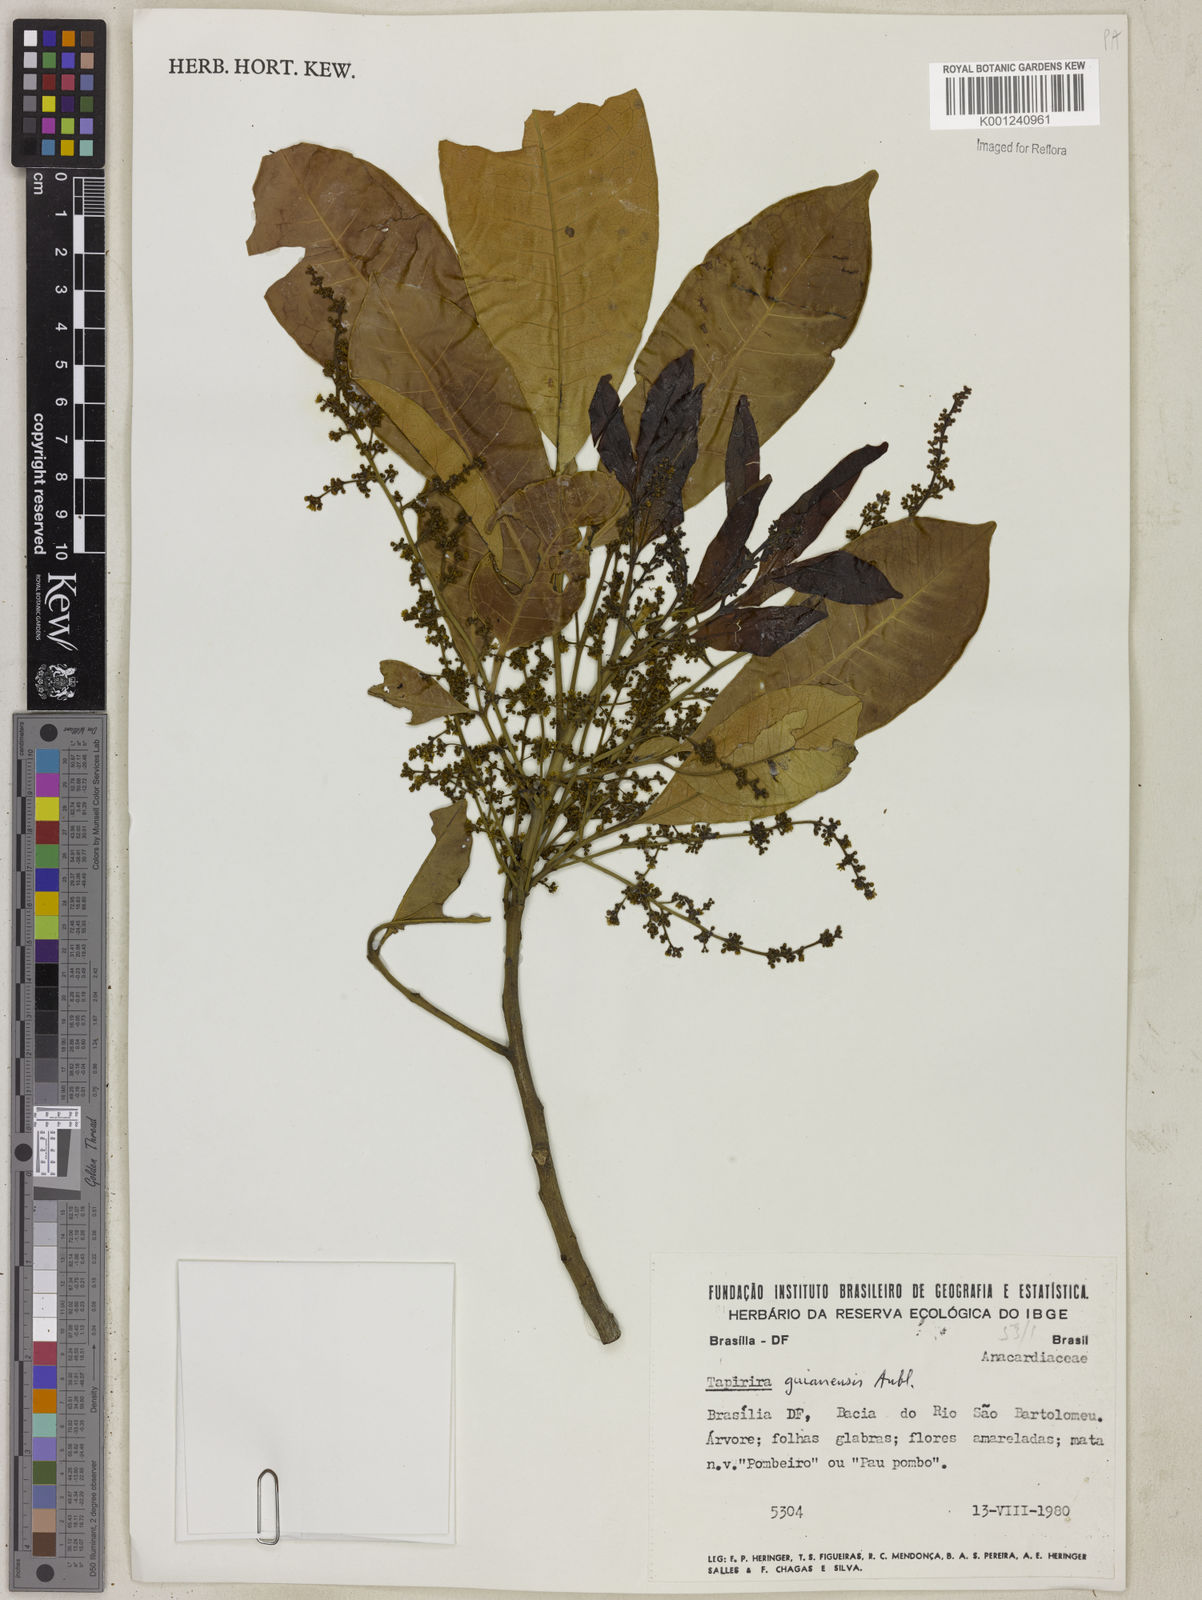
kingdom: Plantae
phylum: Tracheophyta
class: Magnoliopsida
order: Sapindales
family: Anacardiaceae
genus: Tapirira
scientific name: Tapirira guianensis
